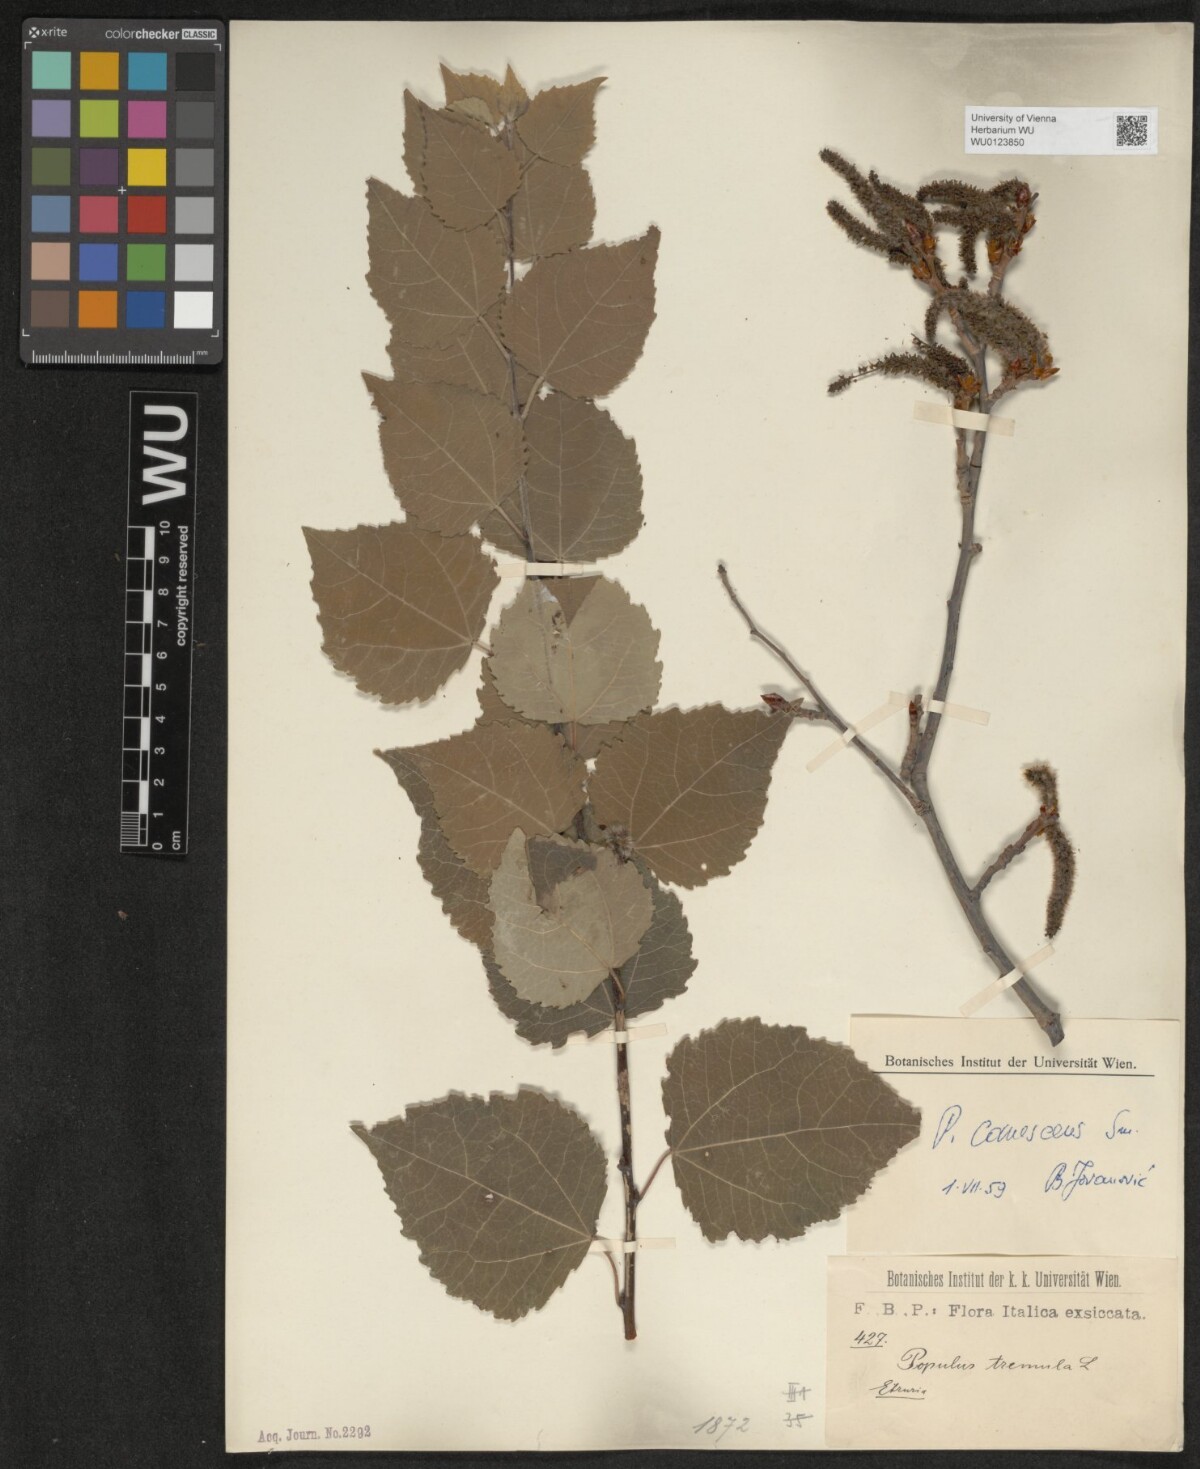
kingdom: Plantae
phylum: Tracheophyta
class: Magnoliopsida
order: Malpighiales
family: Salicaceae
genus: Populus
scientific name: Populus canescens
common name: Gray poplar
